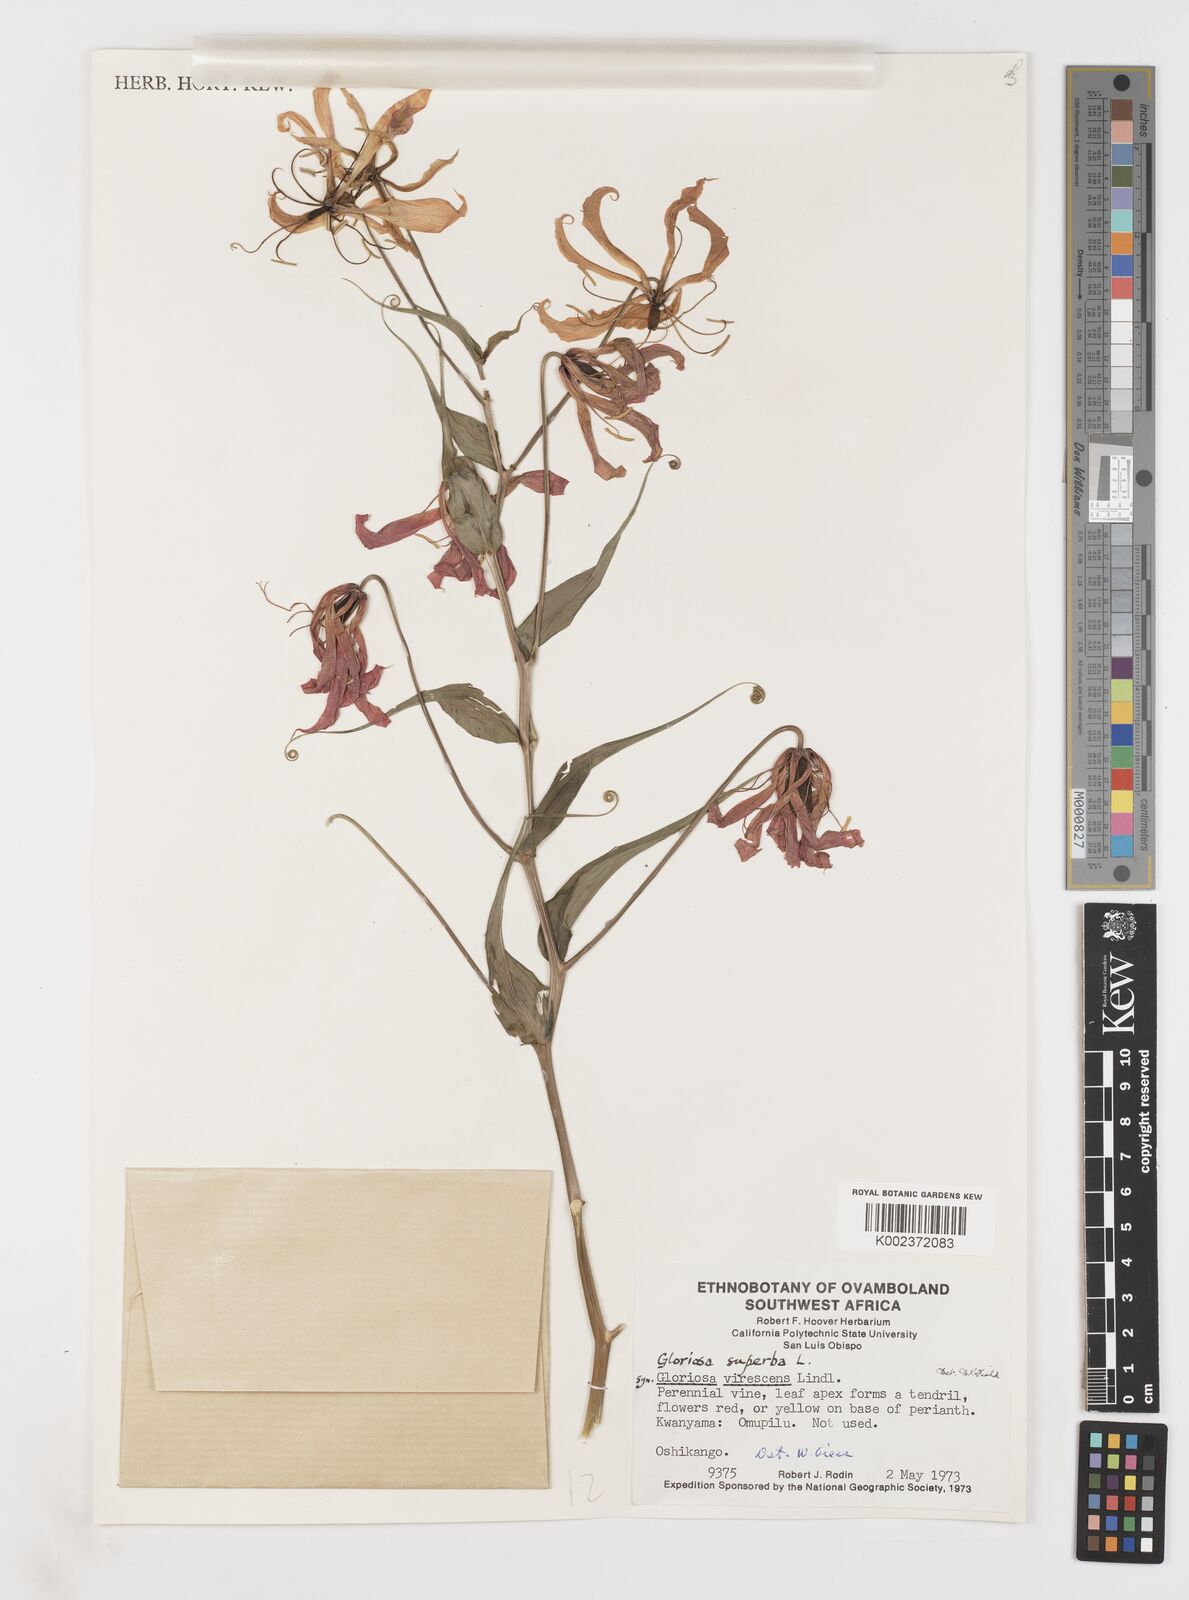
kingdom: Plantae
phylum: Tracheophyta
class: Liliopsida
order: Liliales
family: Colchicaceae
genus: Gloriosa
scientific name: Gloriosa simplex
